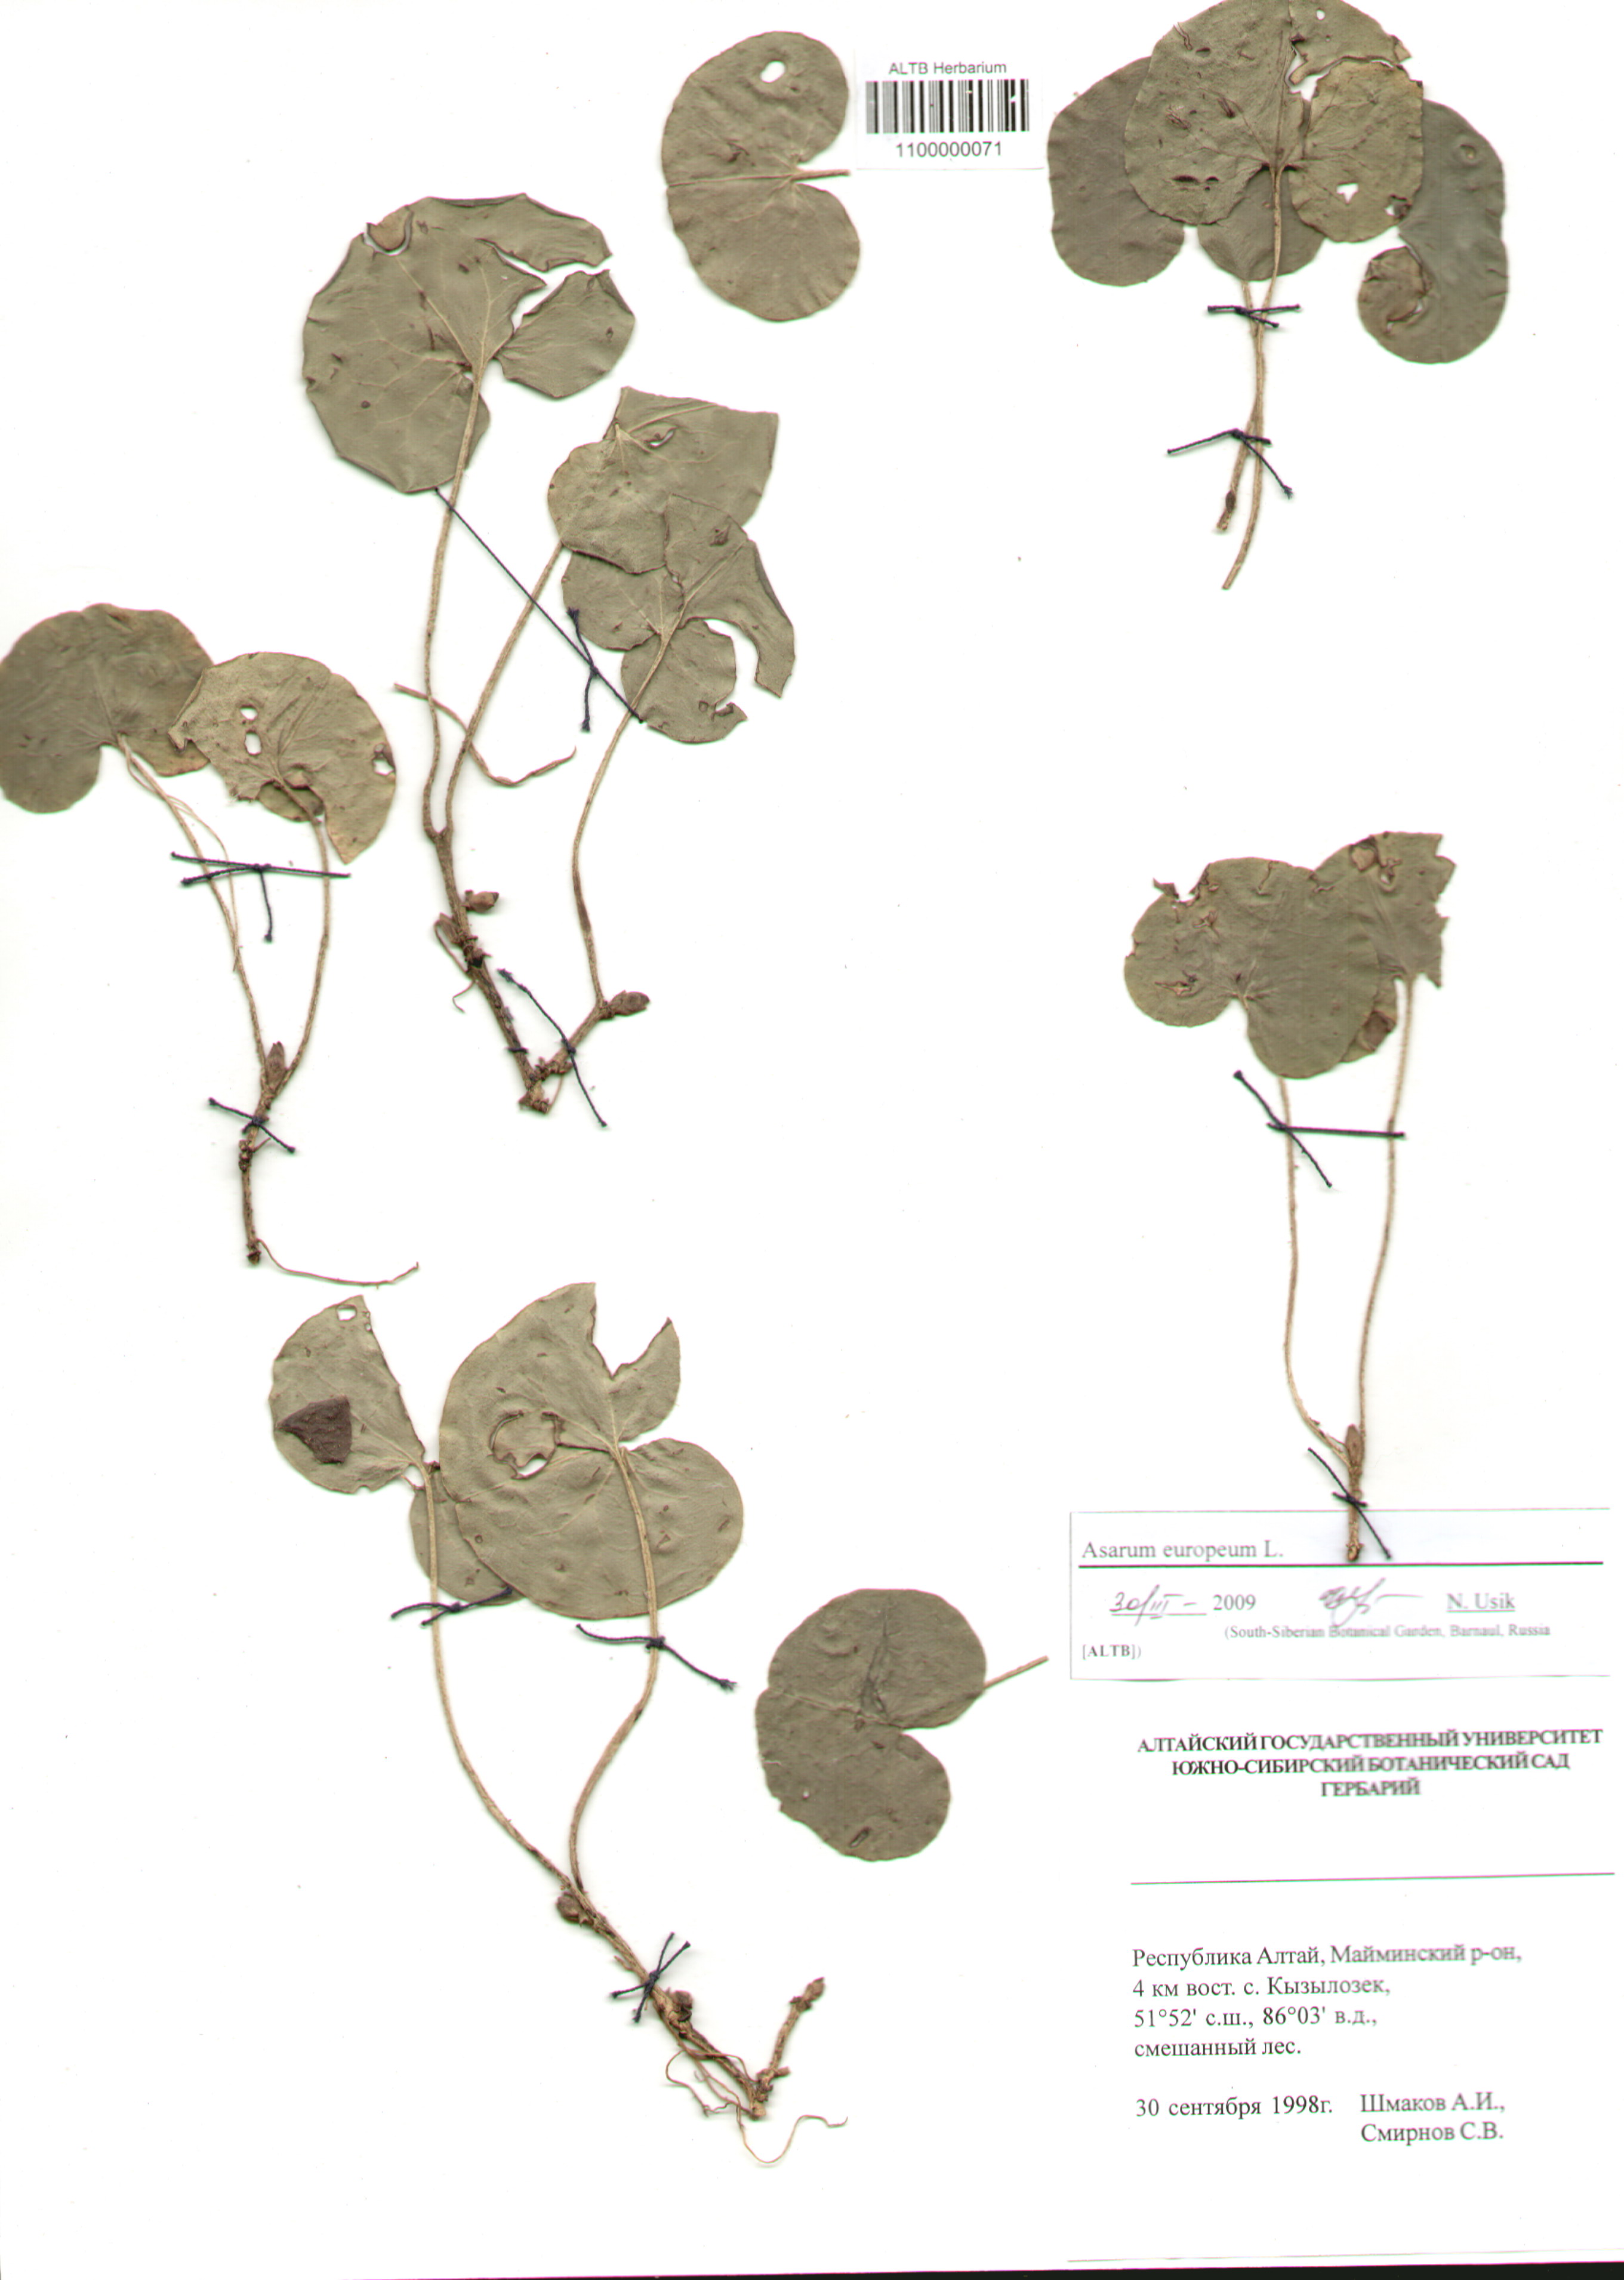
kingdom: Plantae
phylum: Tracheophyta
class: Magnoliopsida
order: Piperales
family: Aristolochiaceae
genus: Asarum
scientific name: Asarum europaeum
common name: Asarabacca
